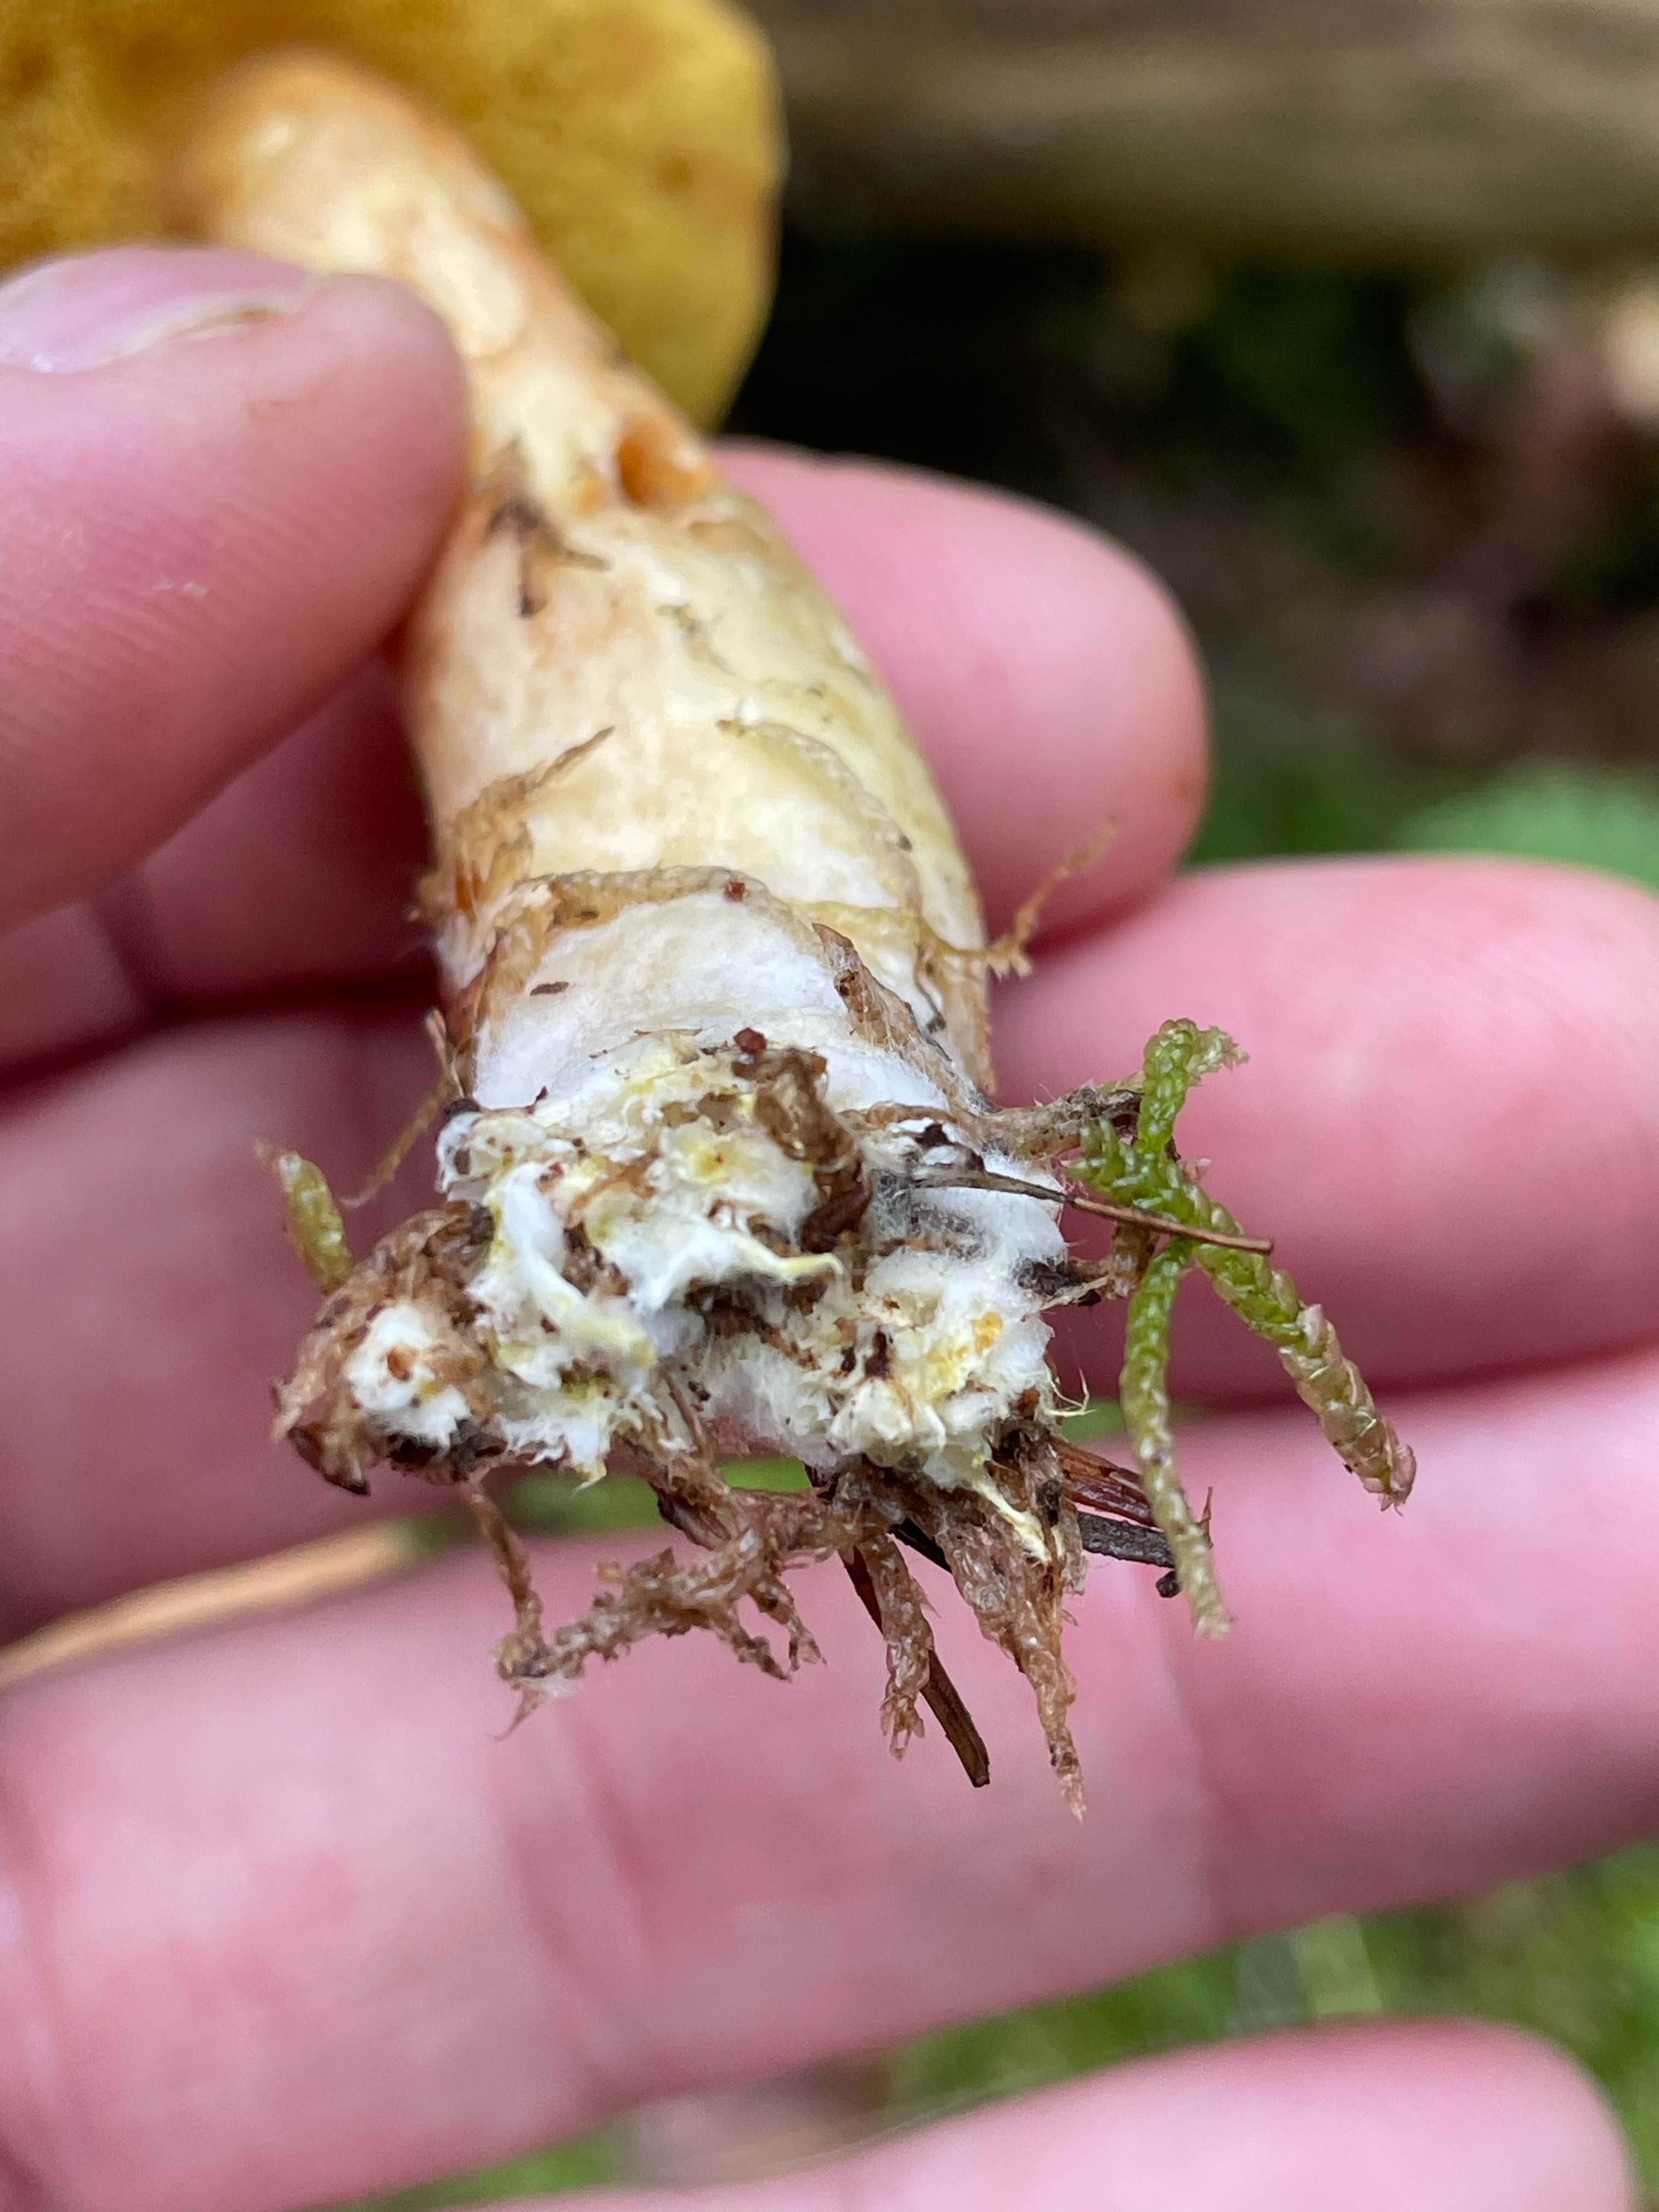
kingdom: Fungi
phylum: Basidiomycota
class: Agaricomycetes
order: Boletales
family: Boletaceae
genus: Xerocomus
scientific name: Xerocomus ferrugineus
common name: vaskeskinds-rørhat
